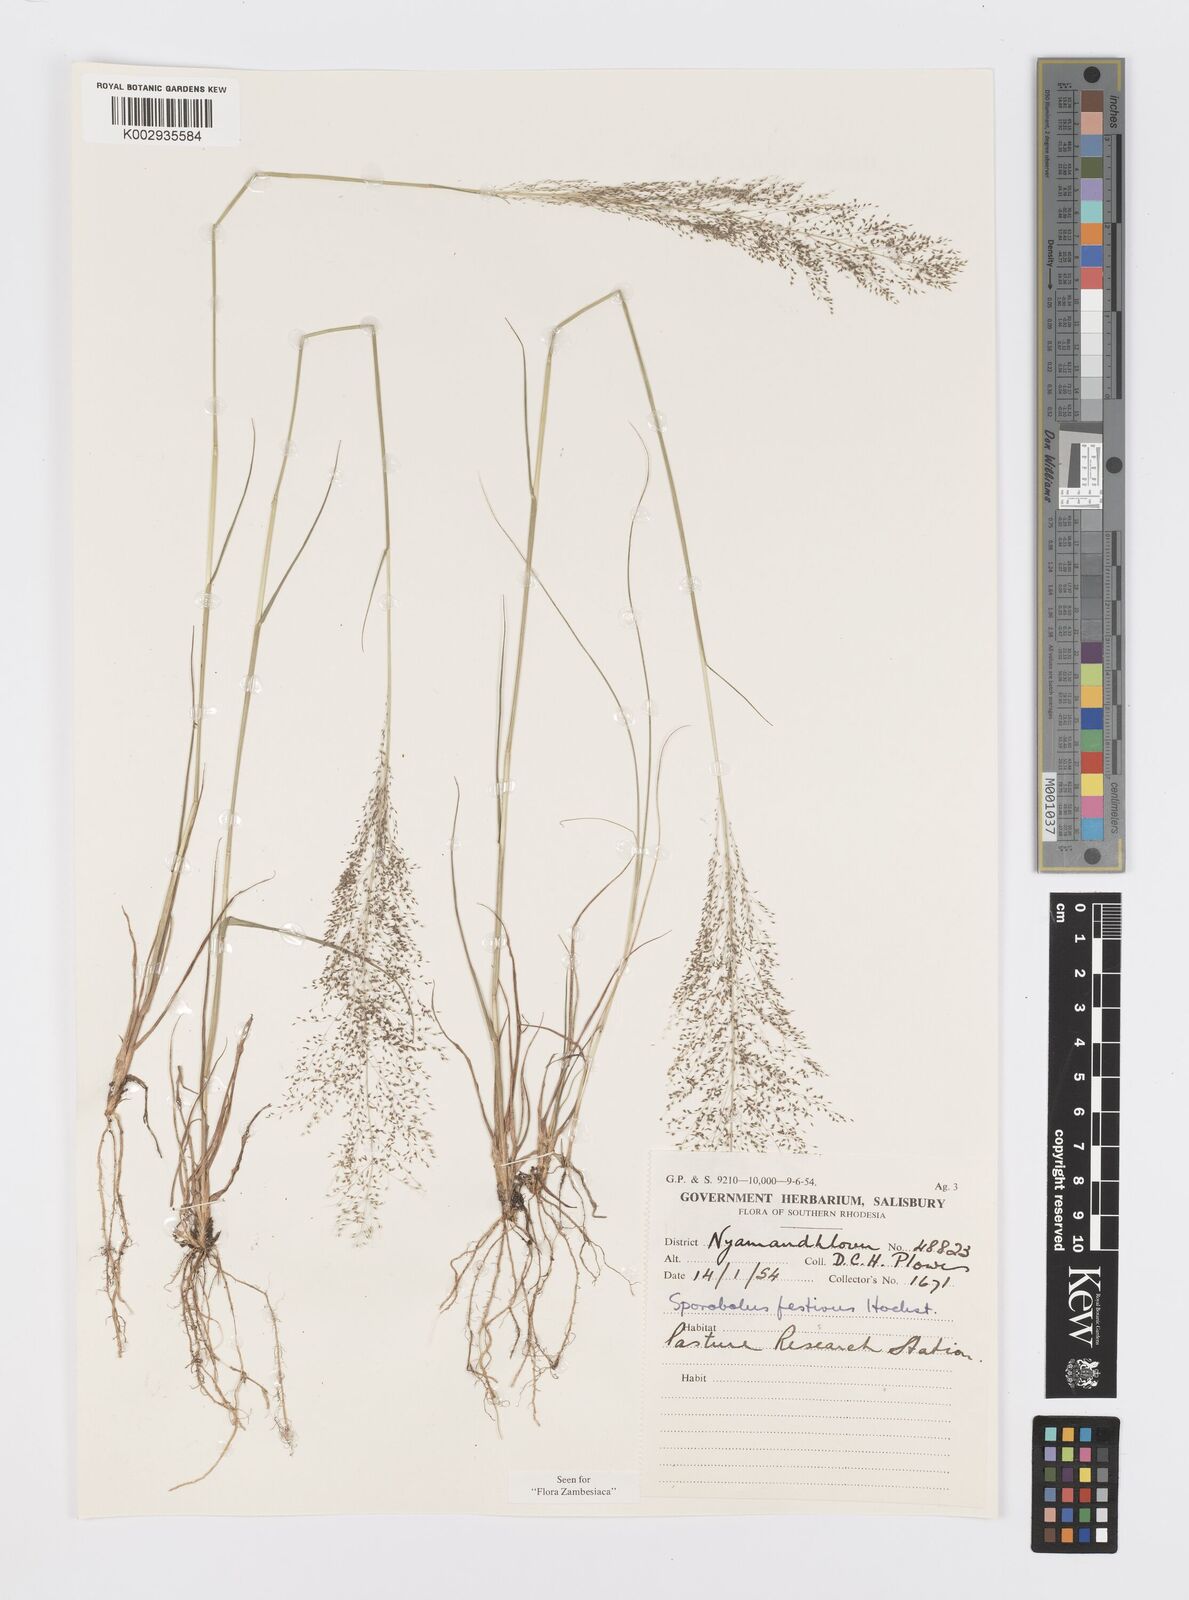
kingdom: Plantae
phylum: Tracheophyta
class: Liliopsida
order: Poales
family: Poaceae
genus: Sporobolus
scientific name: Sporobolus festivus
